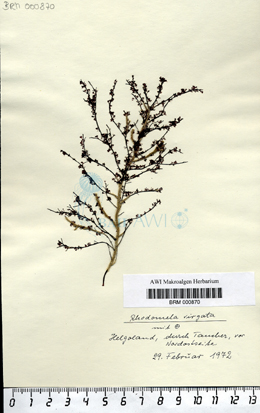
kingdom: Plantae
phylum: Rhodophyta
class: Florideophyceae
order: Ceramiales
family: Rhodomelaceae
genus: Rhodomela
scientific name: Rhodomela confervoides
